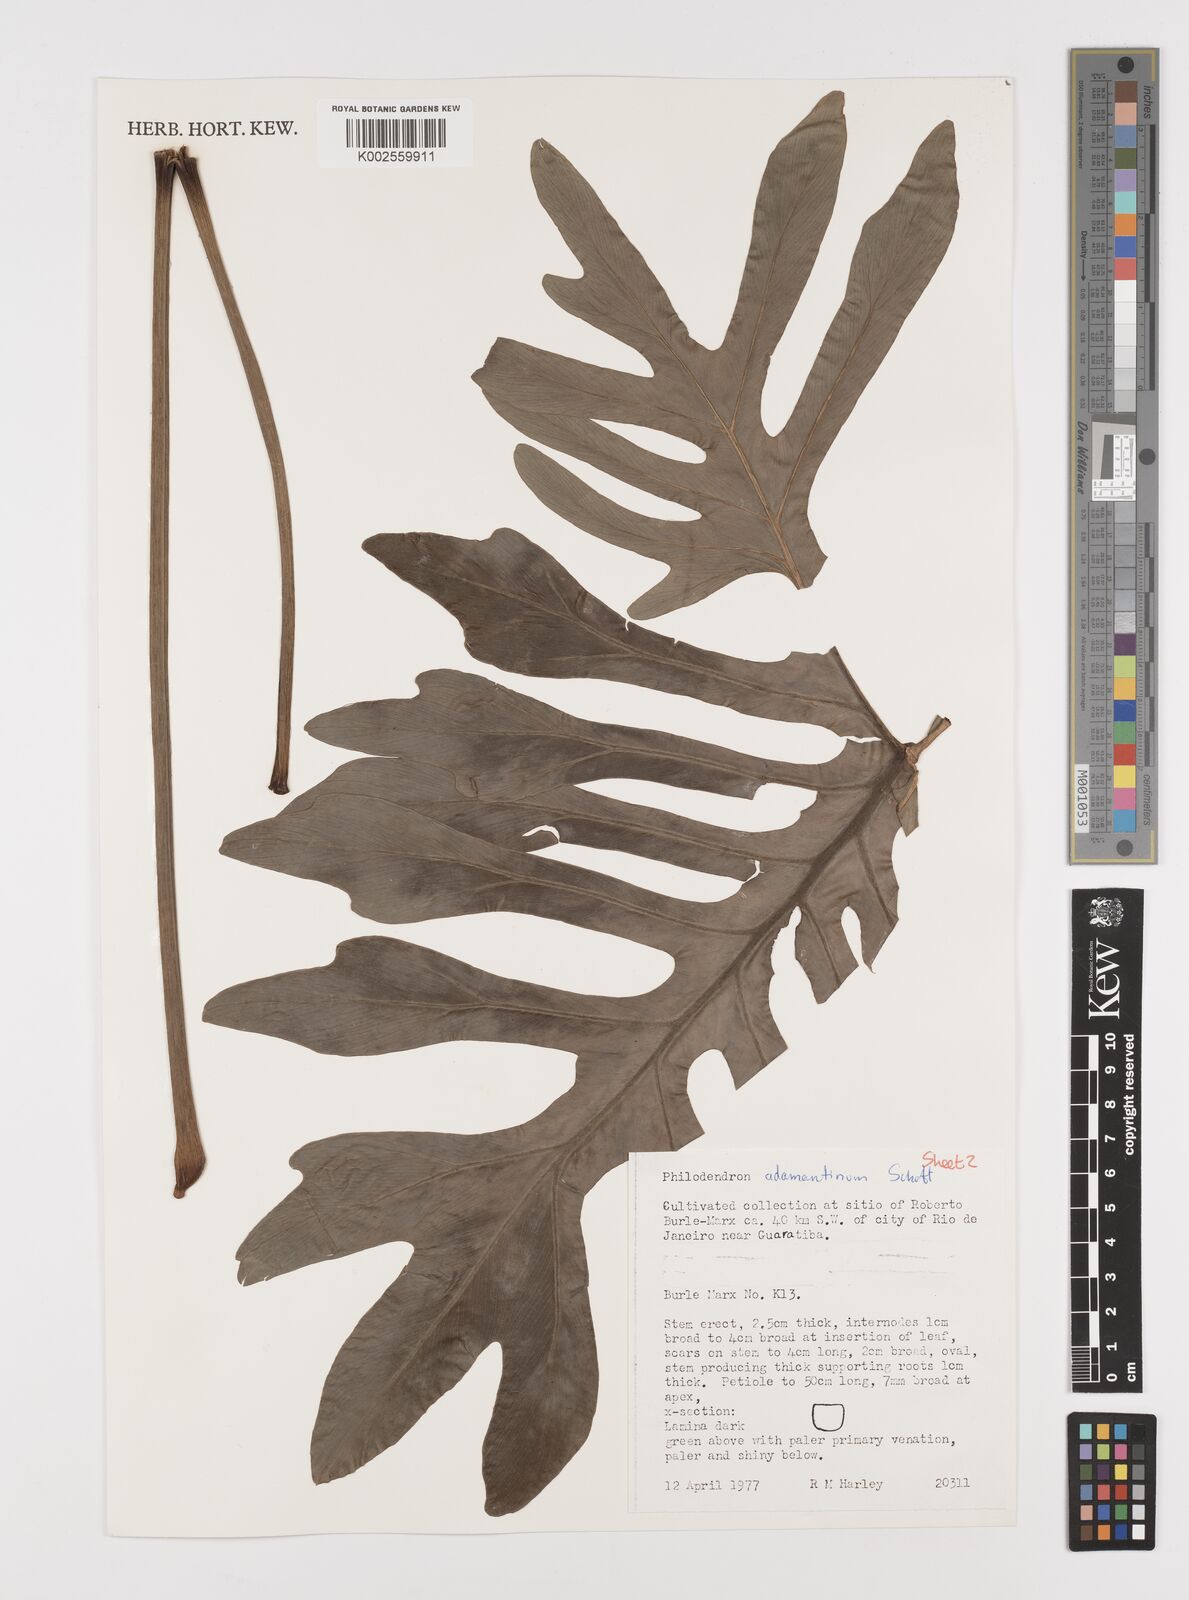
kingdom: Plantae
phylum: Tracheophyta
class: Liliopsida
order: Alismatales
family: Araceae
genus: Thaumatophyllum
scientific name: Thaumatophyllum adamantinum
